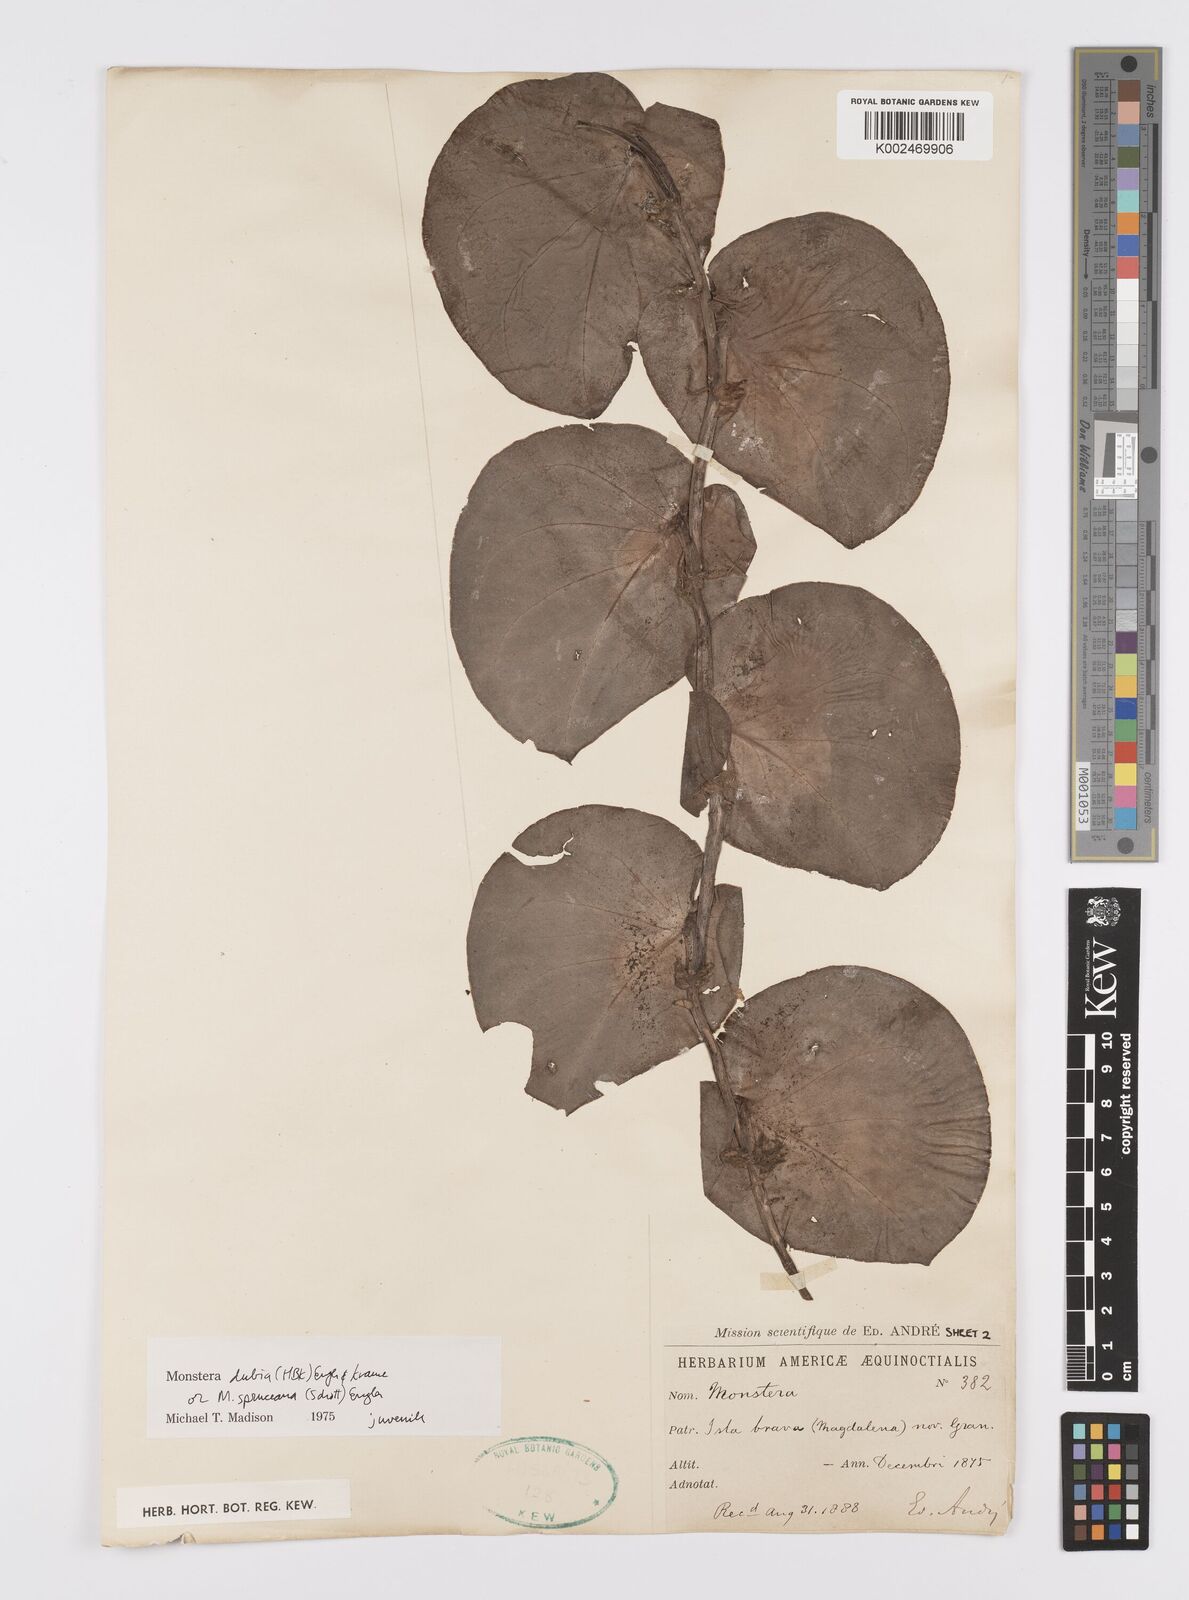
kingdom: Plantae
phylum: Tracheophyta
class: Liliopsida
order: Alismatales
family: Araceae
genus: Monstera
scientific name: Monstera dubia
